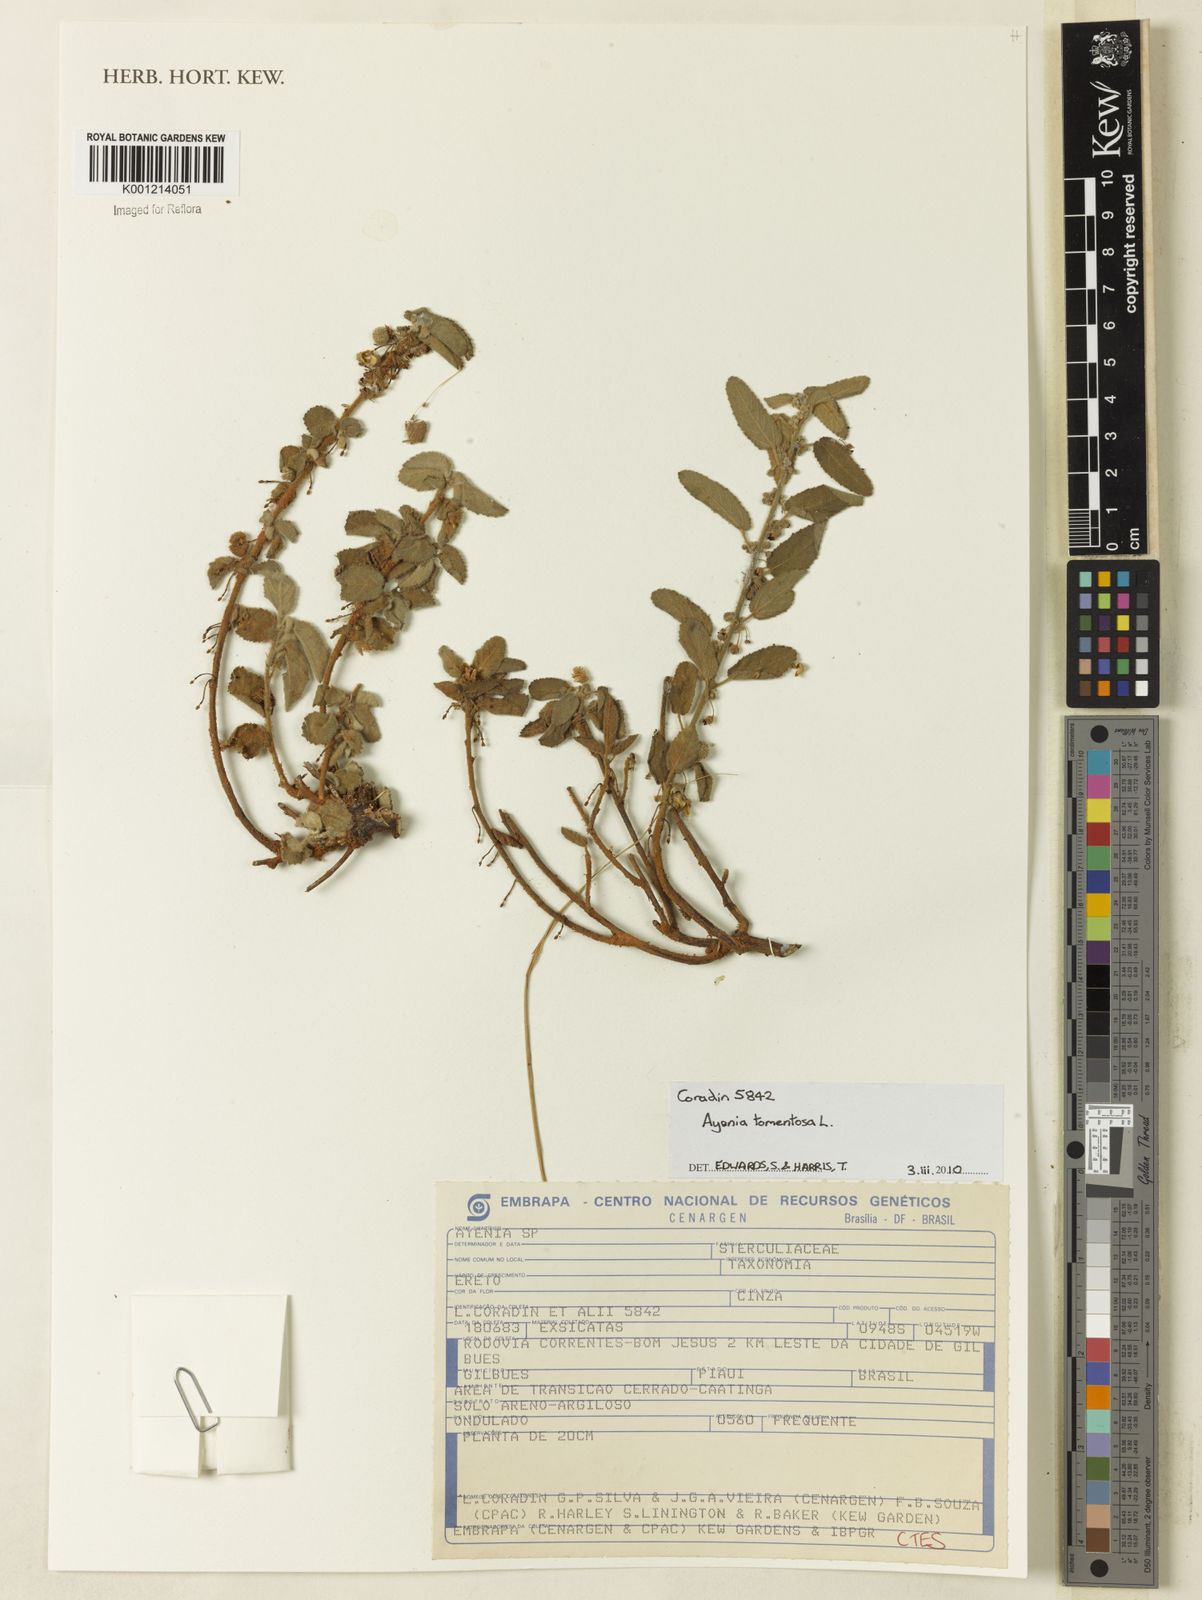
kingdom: Plantae
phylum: Tracheophyta
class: Magnoliopsida
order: Malvales
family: Malvaceae
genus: Ayenia
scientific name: Ayenia tomentosa
